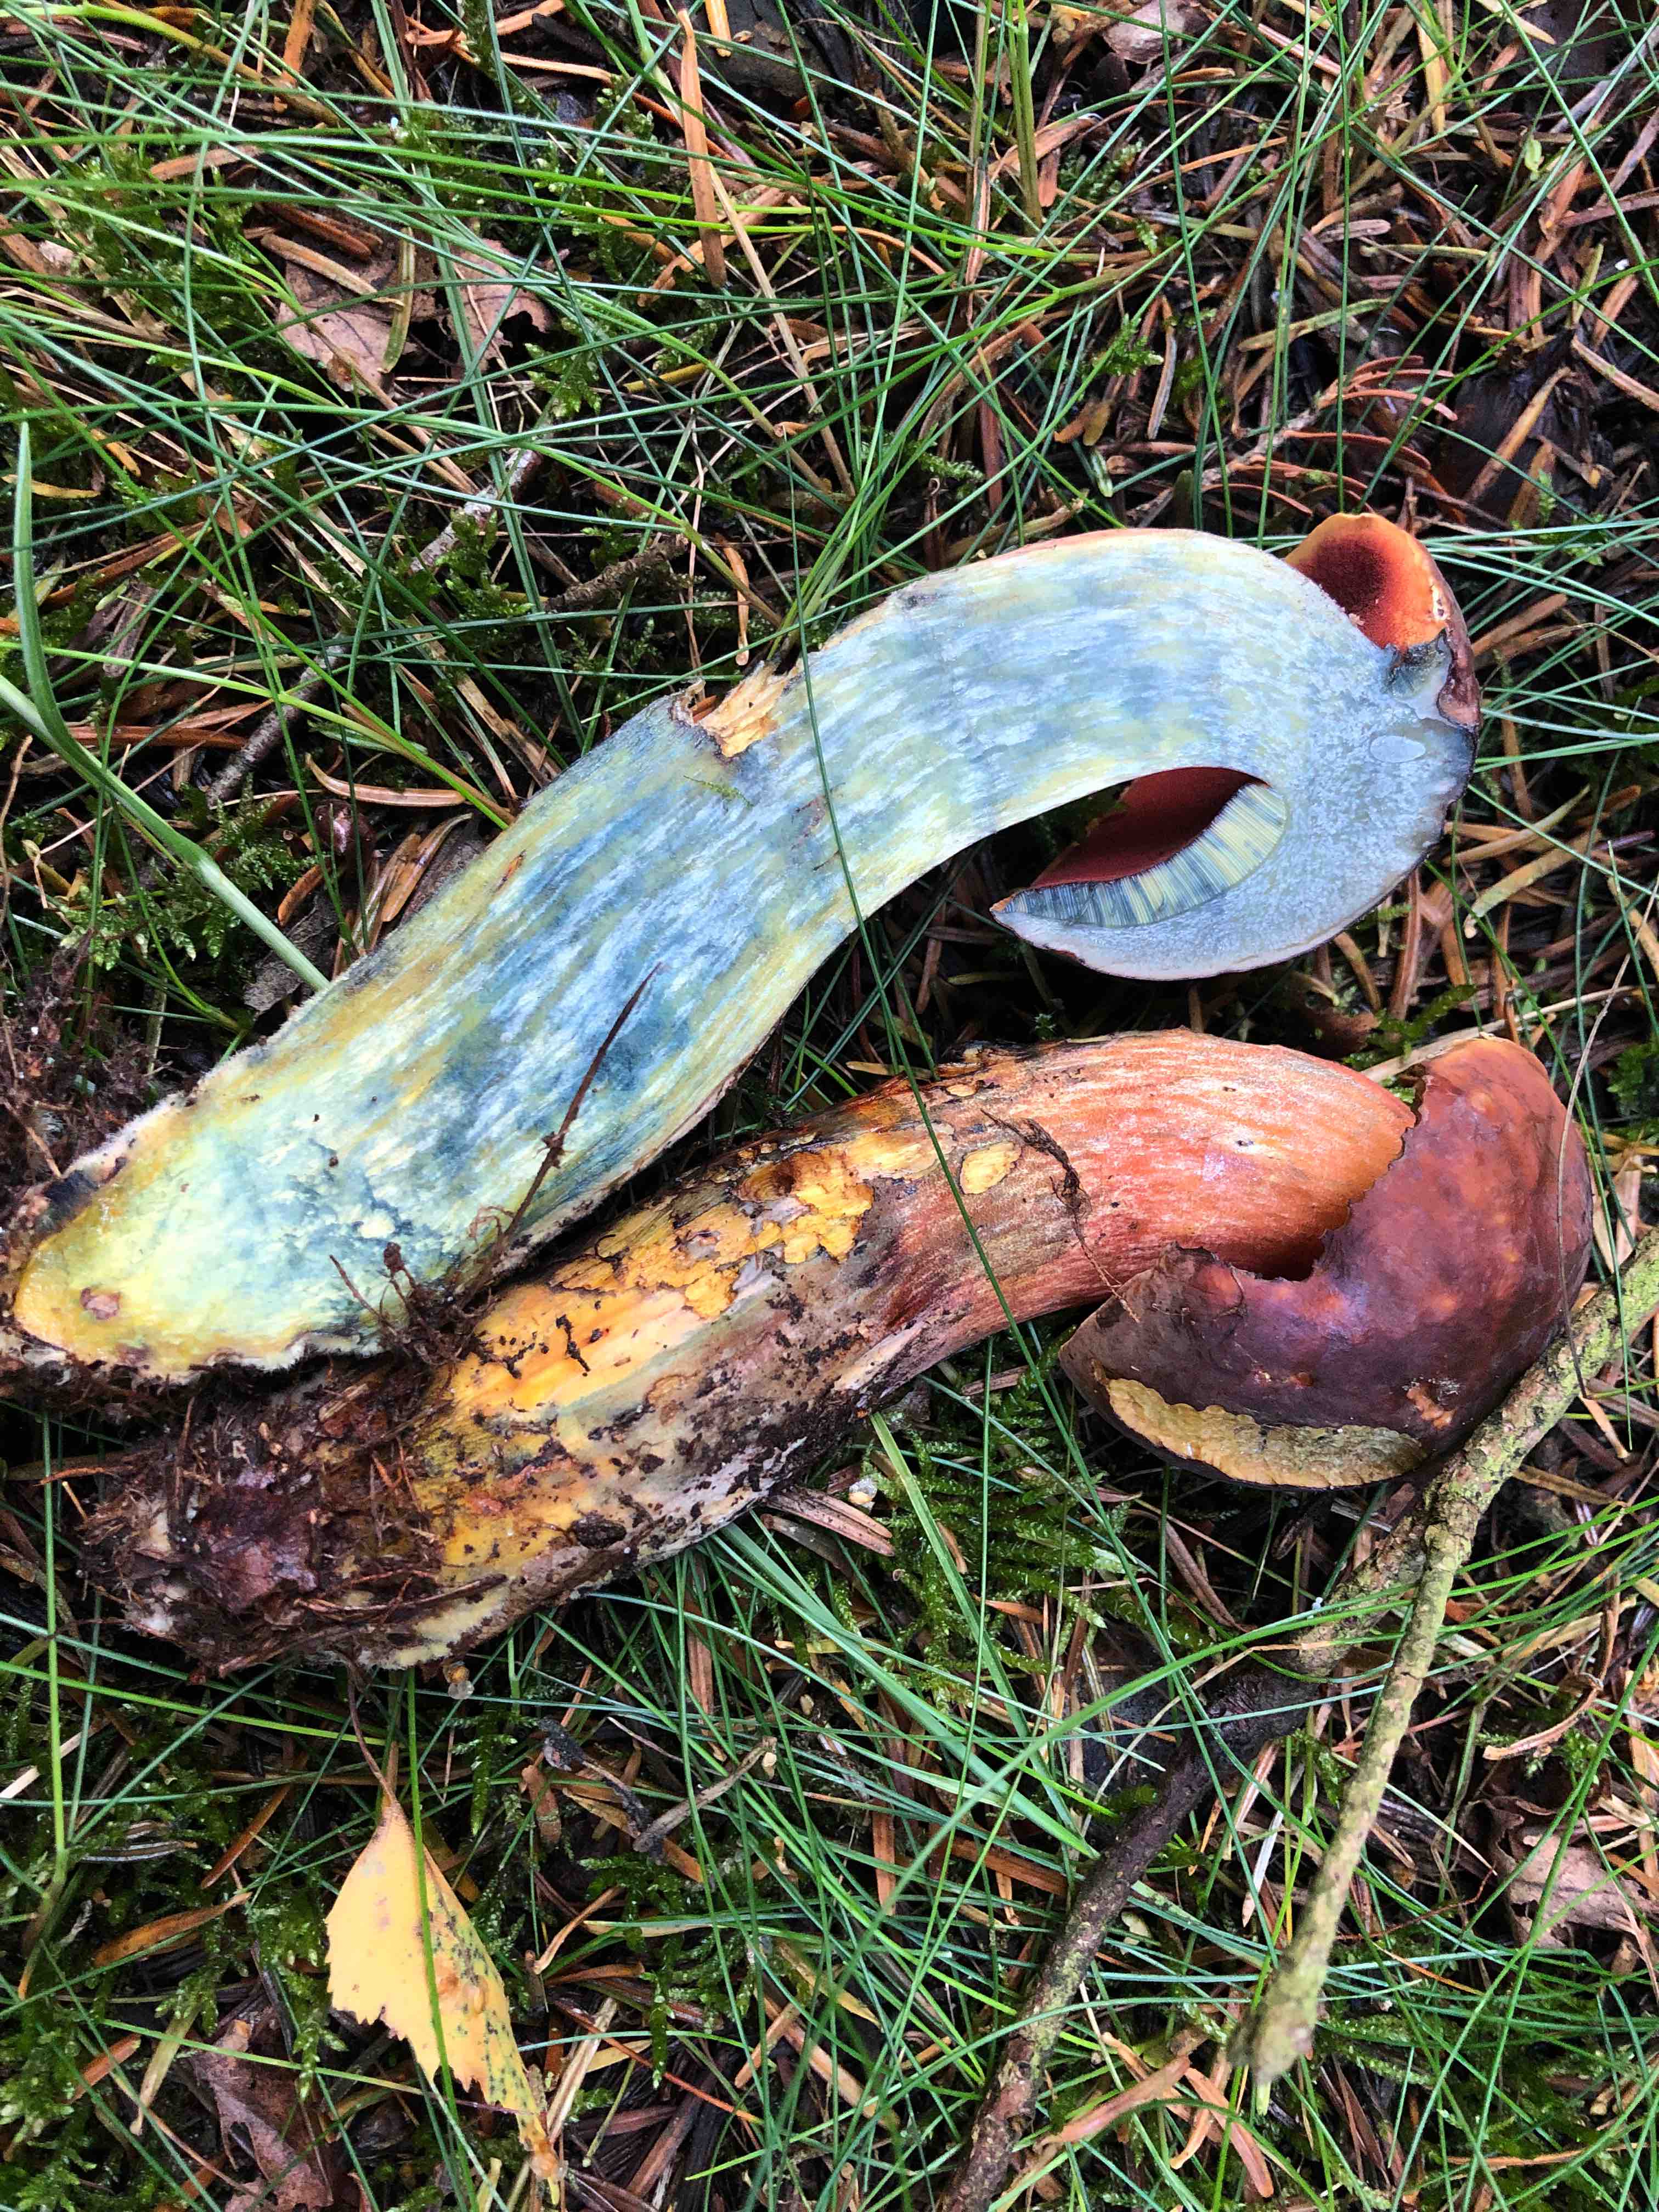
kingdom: Fungi
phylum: Basidiomycota
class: Agaricomycetes
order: Boletales
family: Boletaceae
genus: Neoboletus
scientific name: Neoboletus erythropus
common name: punktstokket indigorørhat
